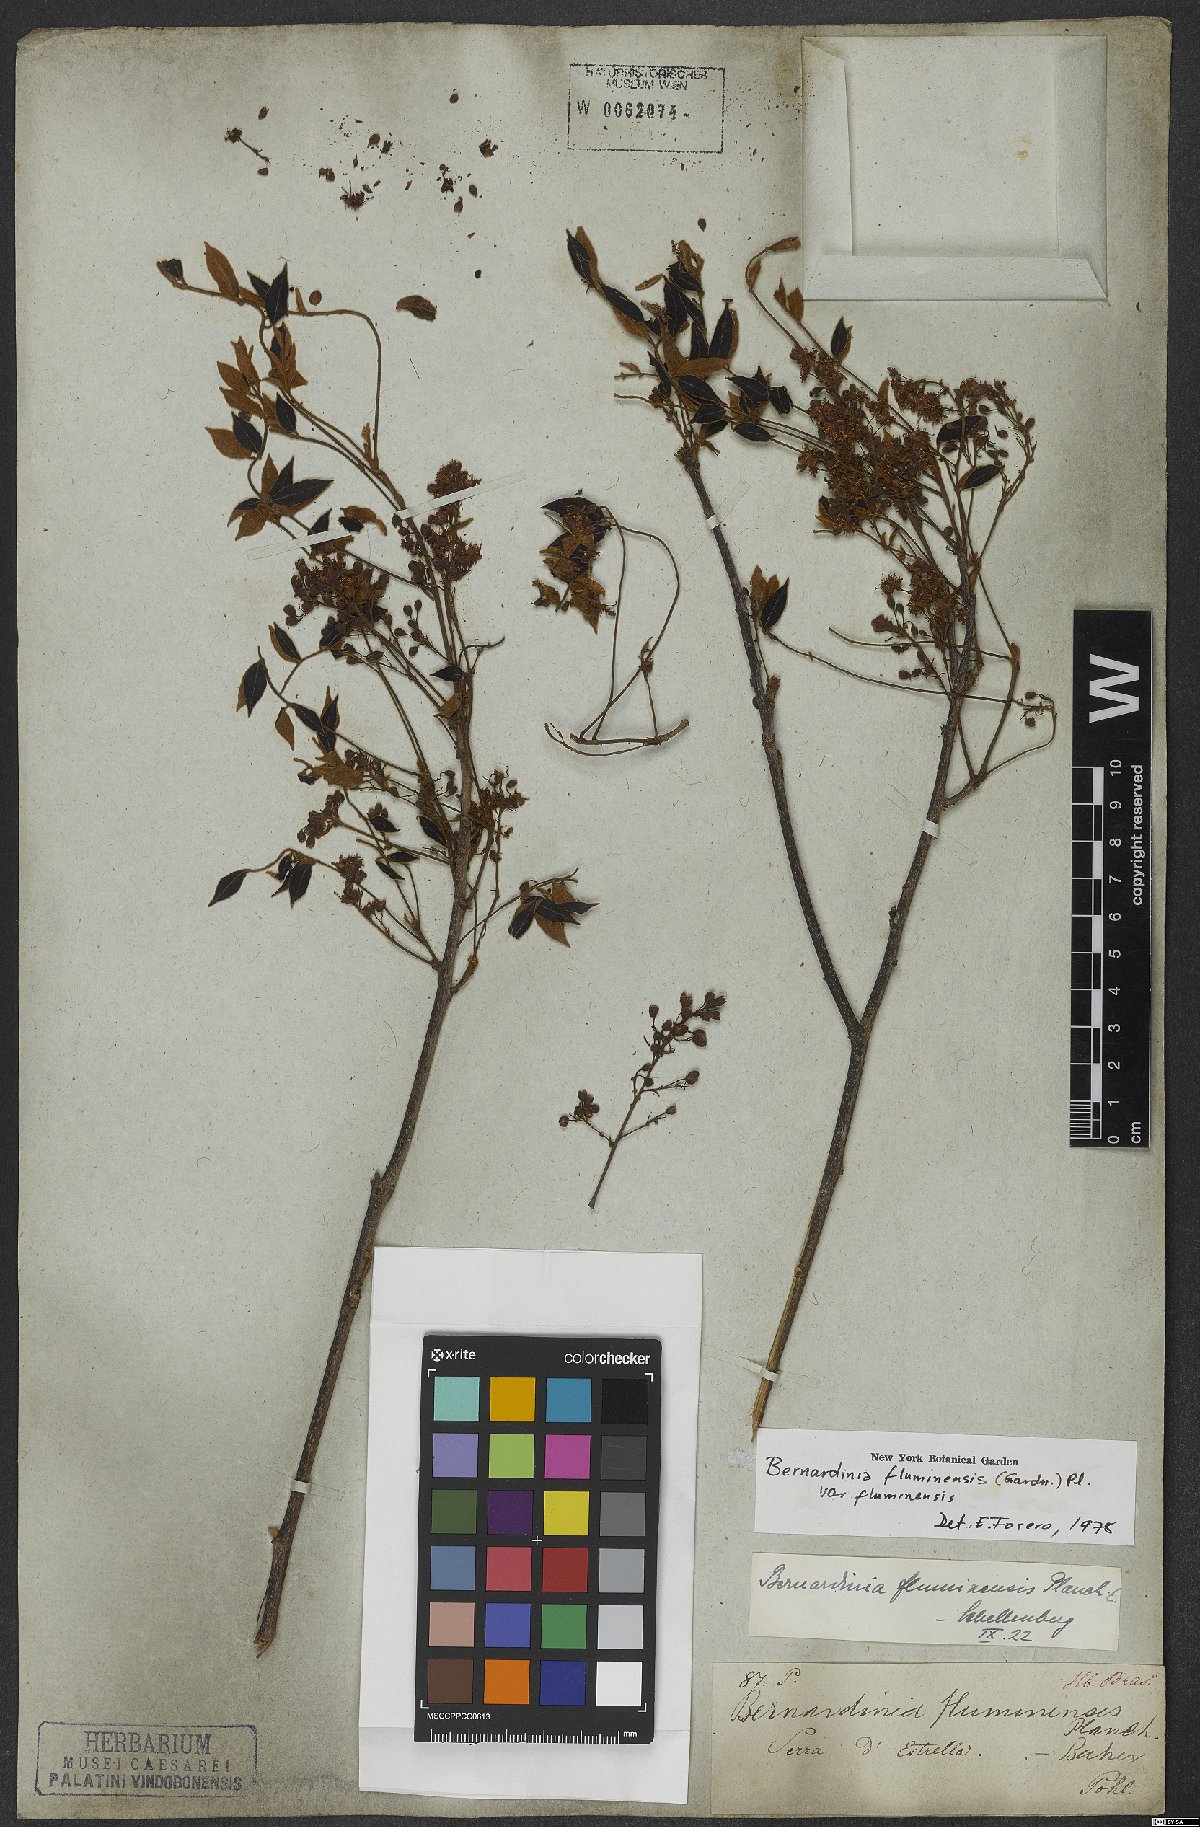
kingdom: Plantae
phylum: Tracheophyta
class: Magnoliopsida
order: Oxalidales
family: Connaraceae
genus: Rourea
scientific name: Rourea fluminensis
